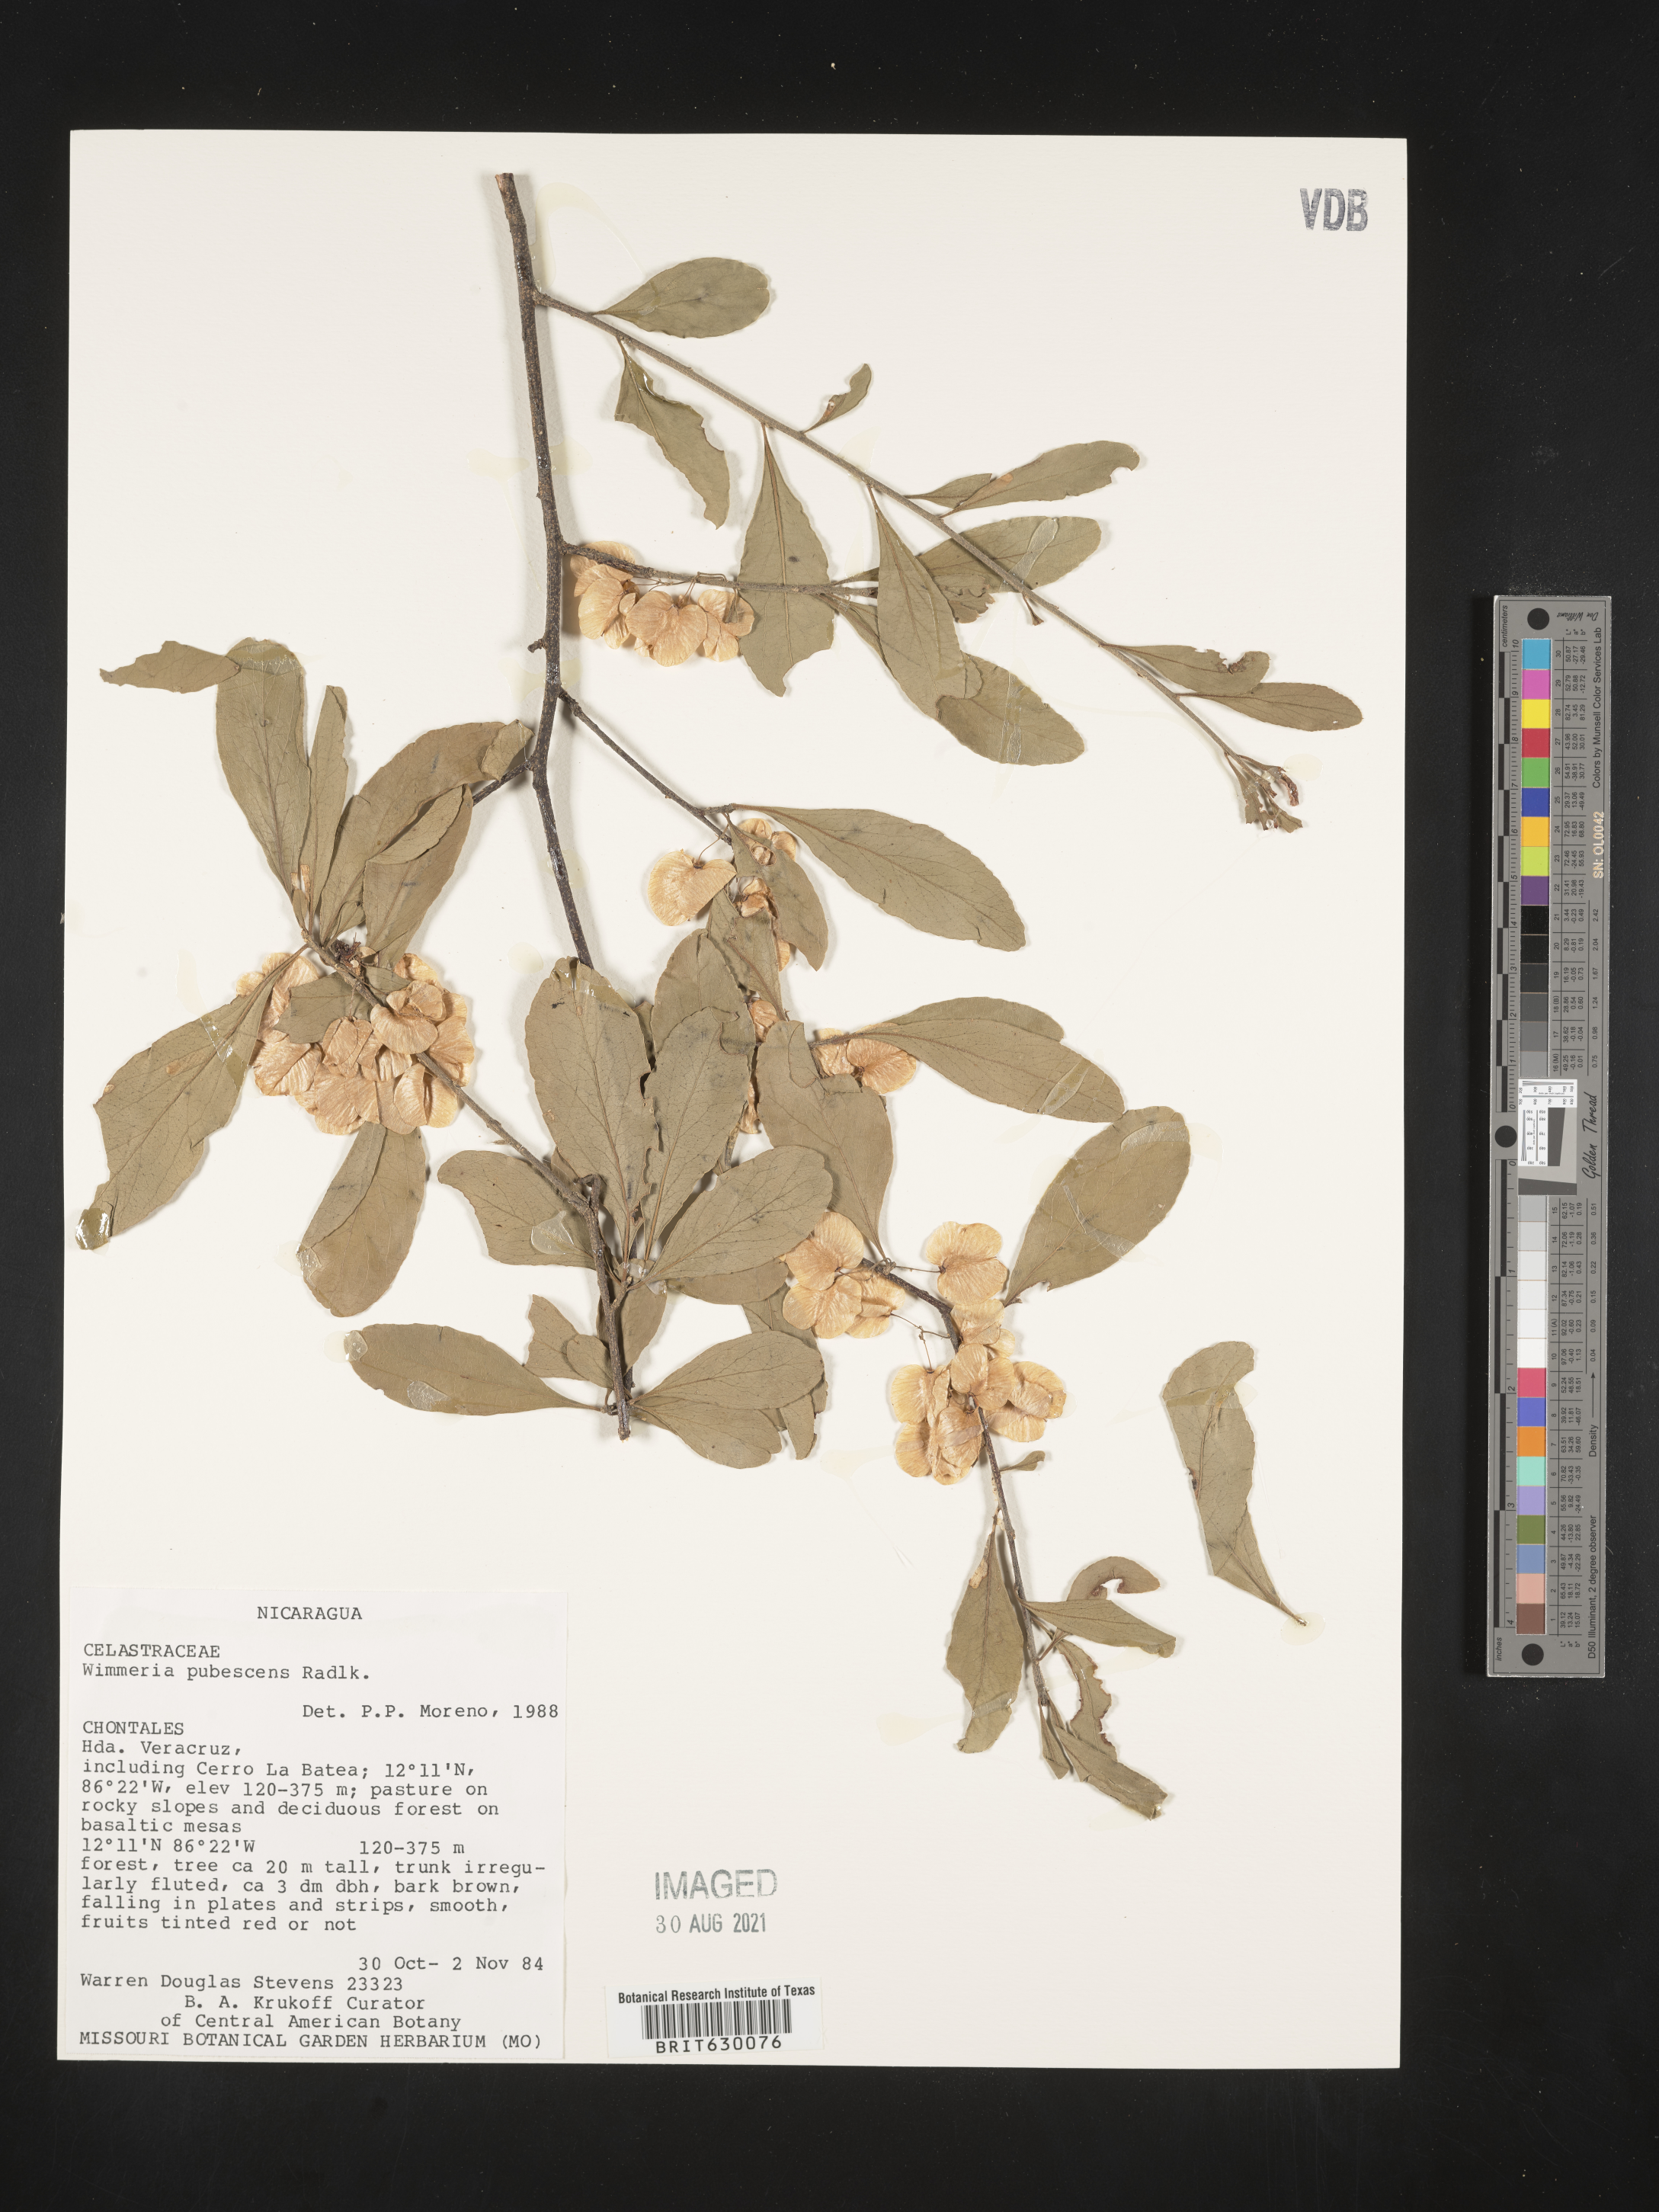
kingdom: Plantae
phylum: Tracheophyta
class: Magnoliopsida
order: Celastrales
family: Celastraceae
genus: Wimmeria
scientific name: Wimmeria pubescens
